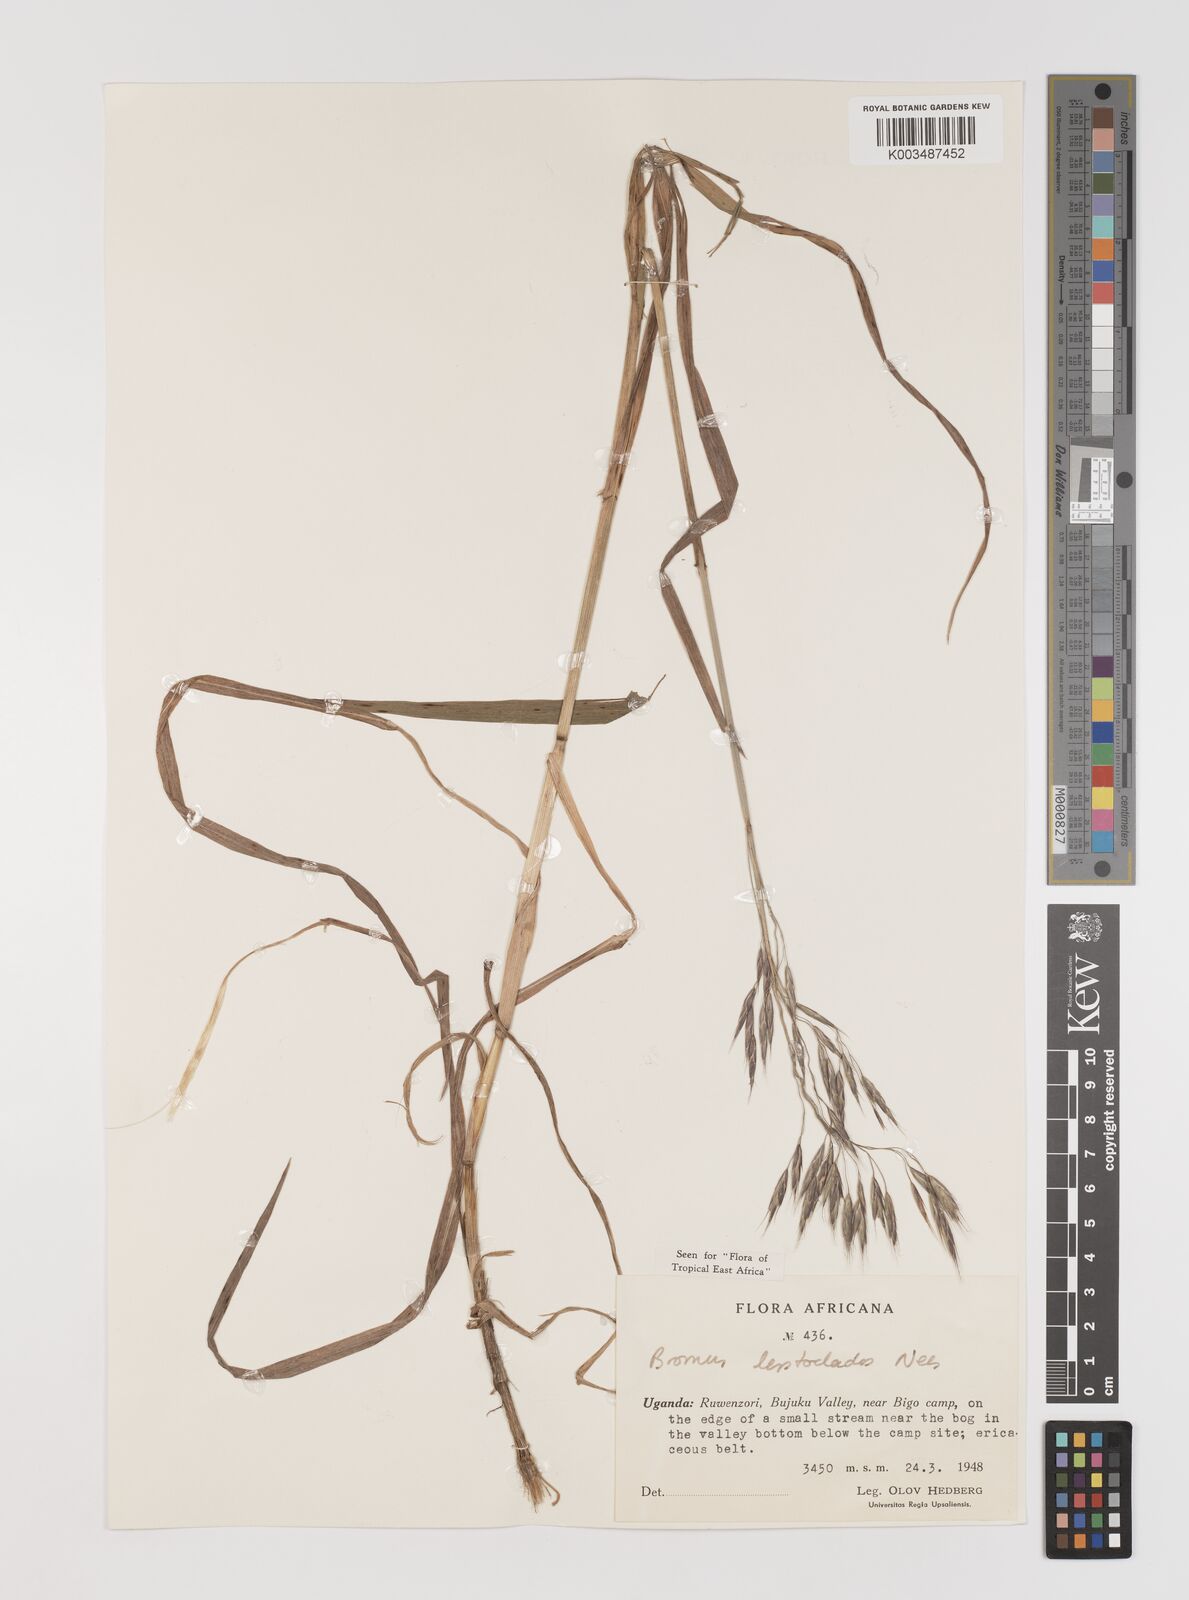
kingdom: Plantae
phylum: Tracheophyta
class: Liliopsida
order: Poales
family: Poaceae
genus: Bromus
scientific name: Bromus leptoclados
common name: Mountain bromegrass
